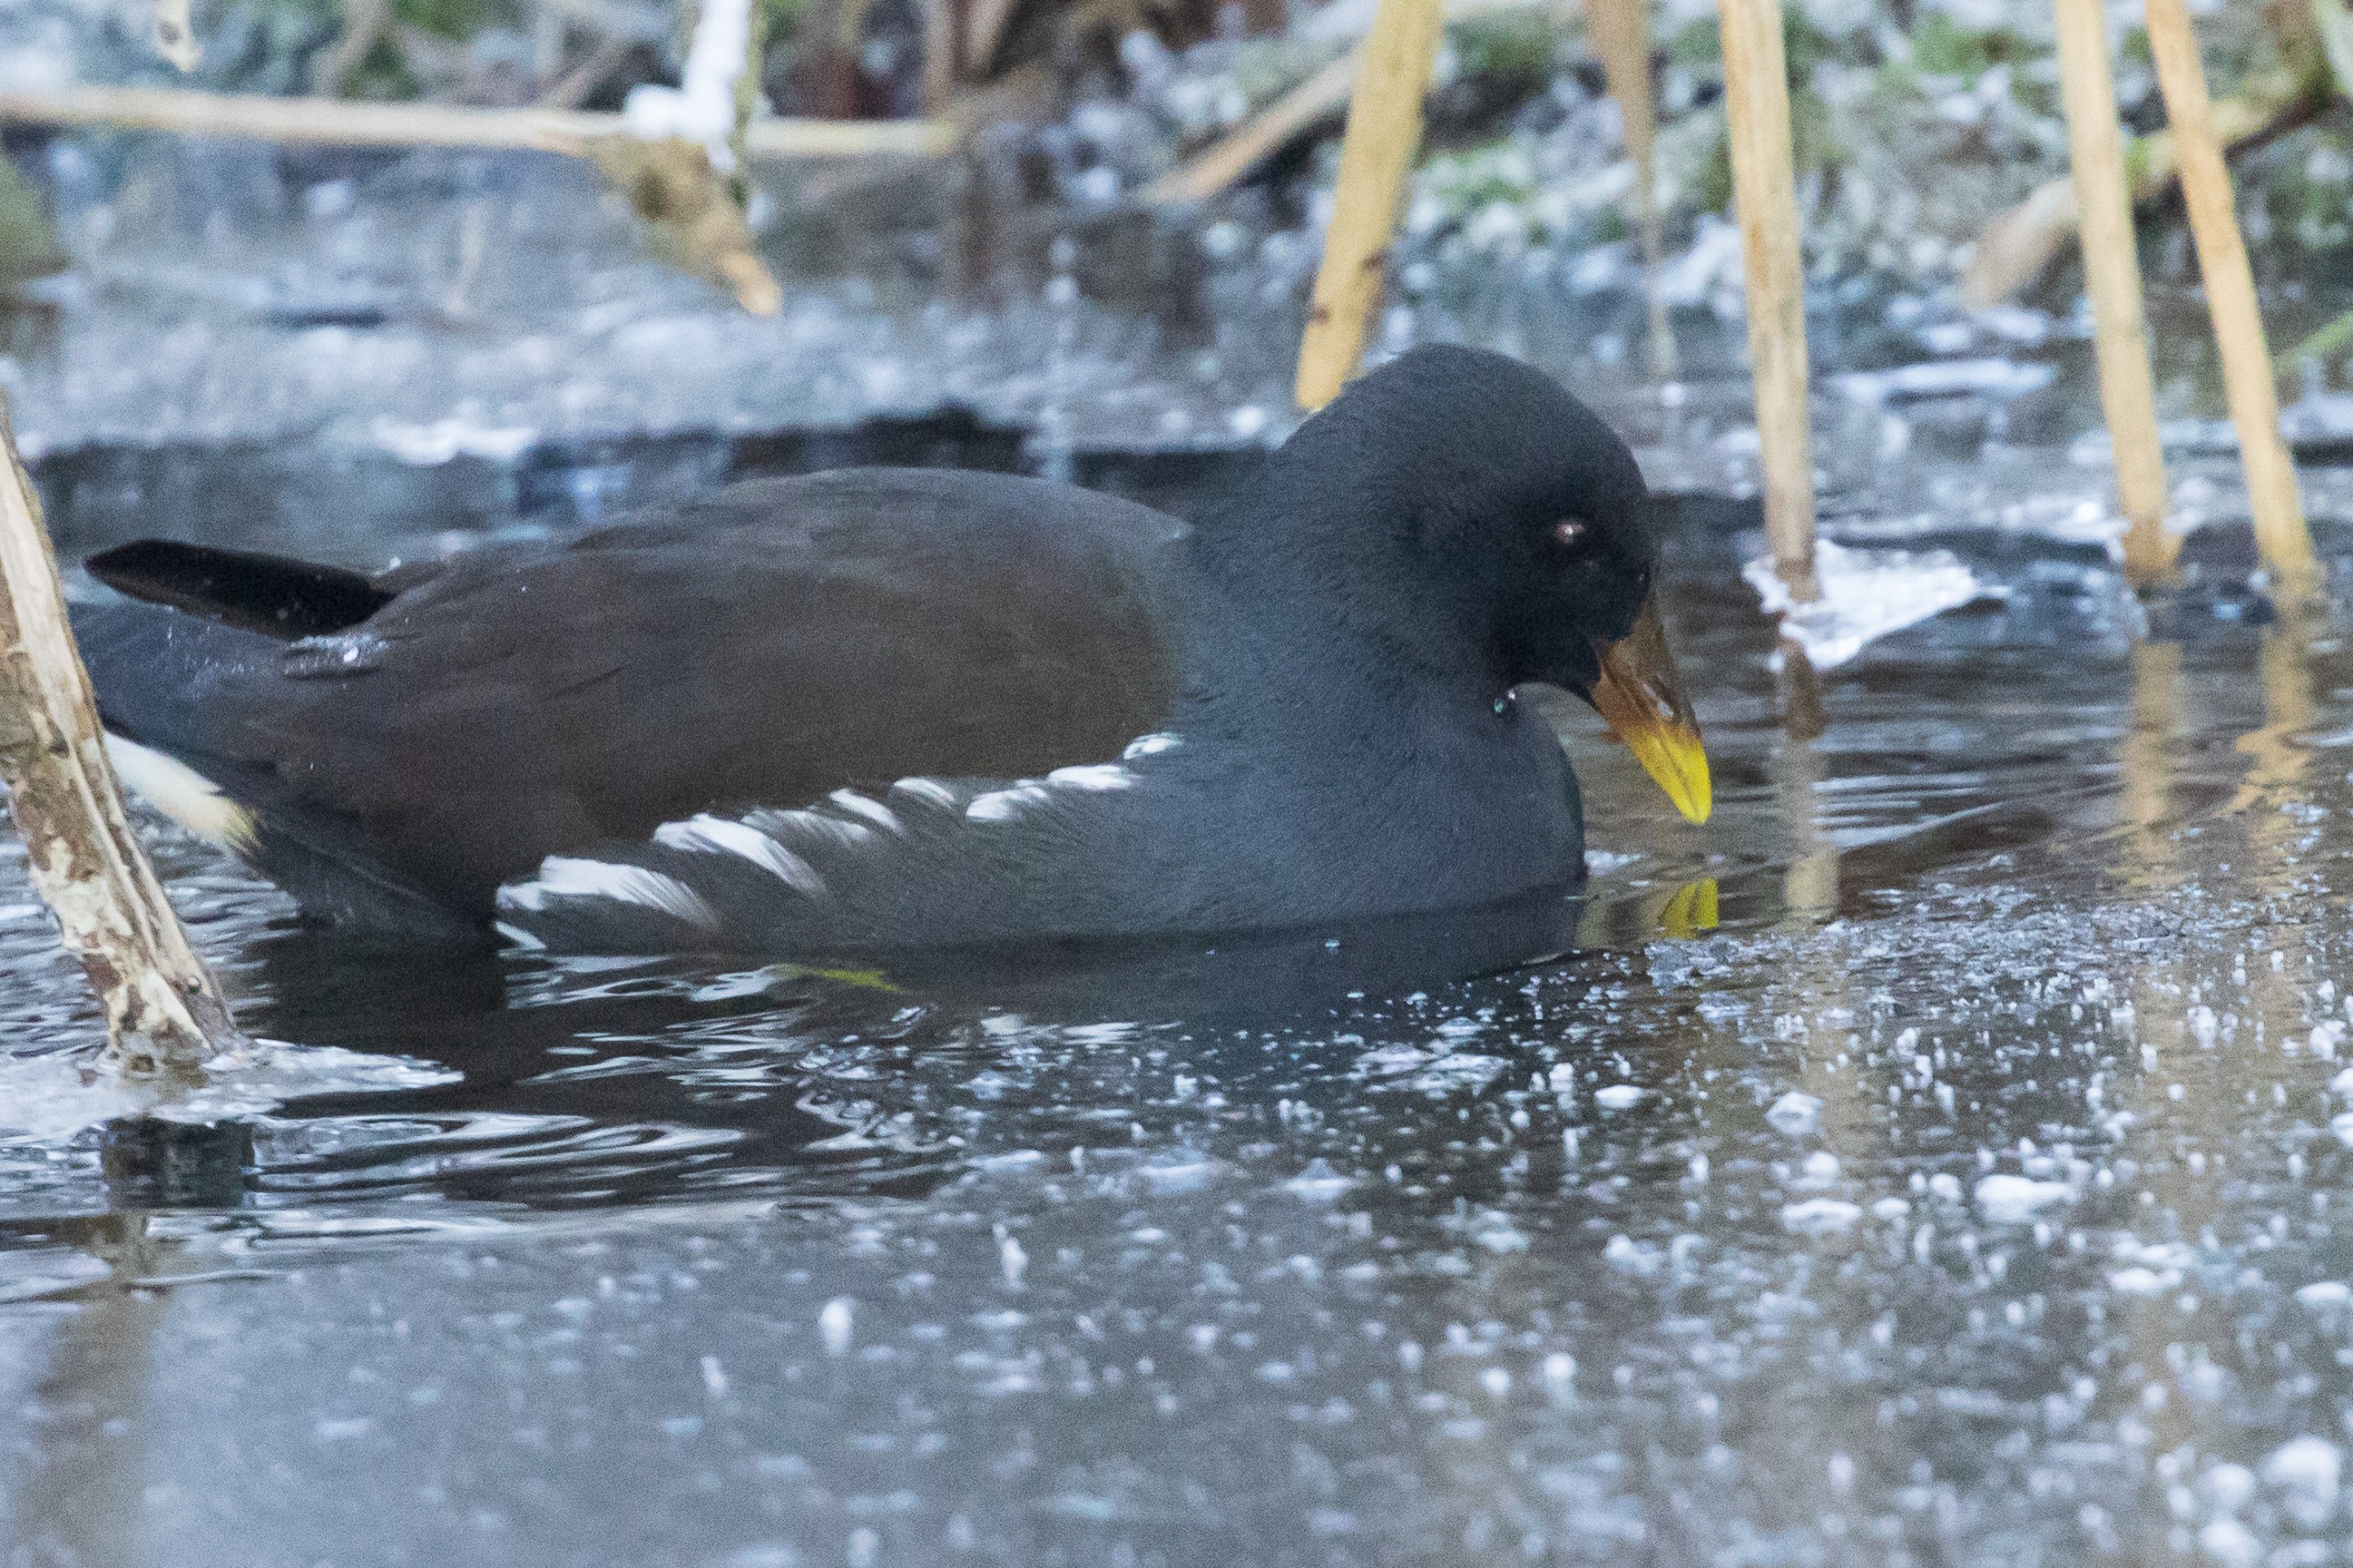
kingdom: Animalia
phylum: Chordata
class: Aves
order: Gruiformes
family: Rallidae
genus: Gallinula
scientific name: Gallinula chloropus
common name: Grønbenet rørhøne
